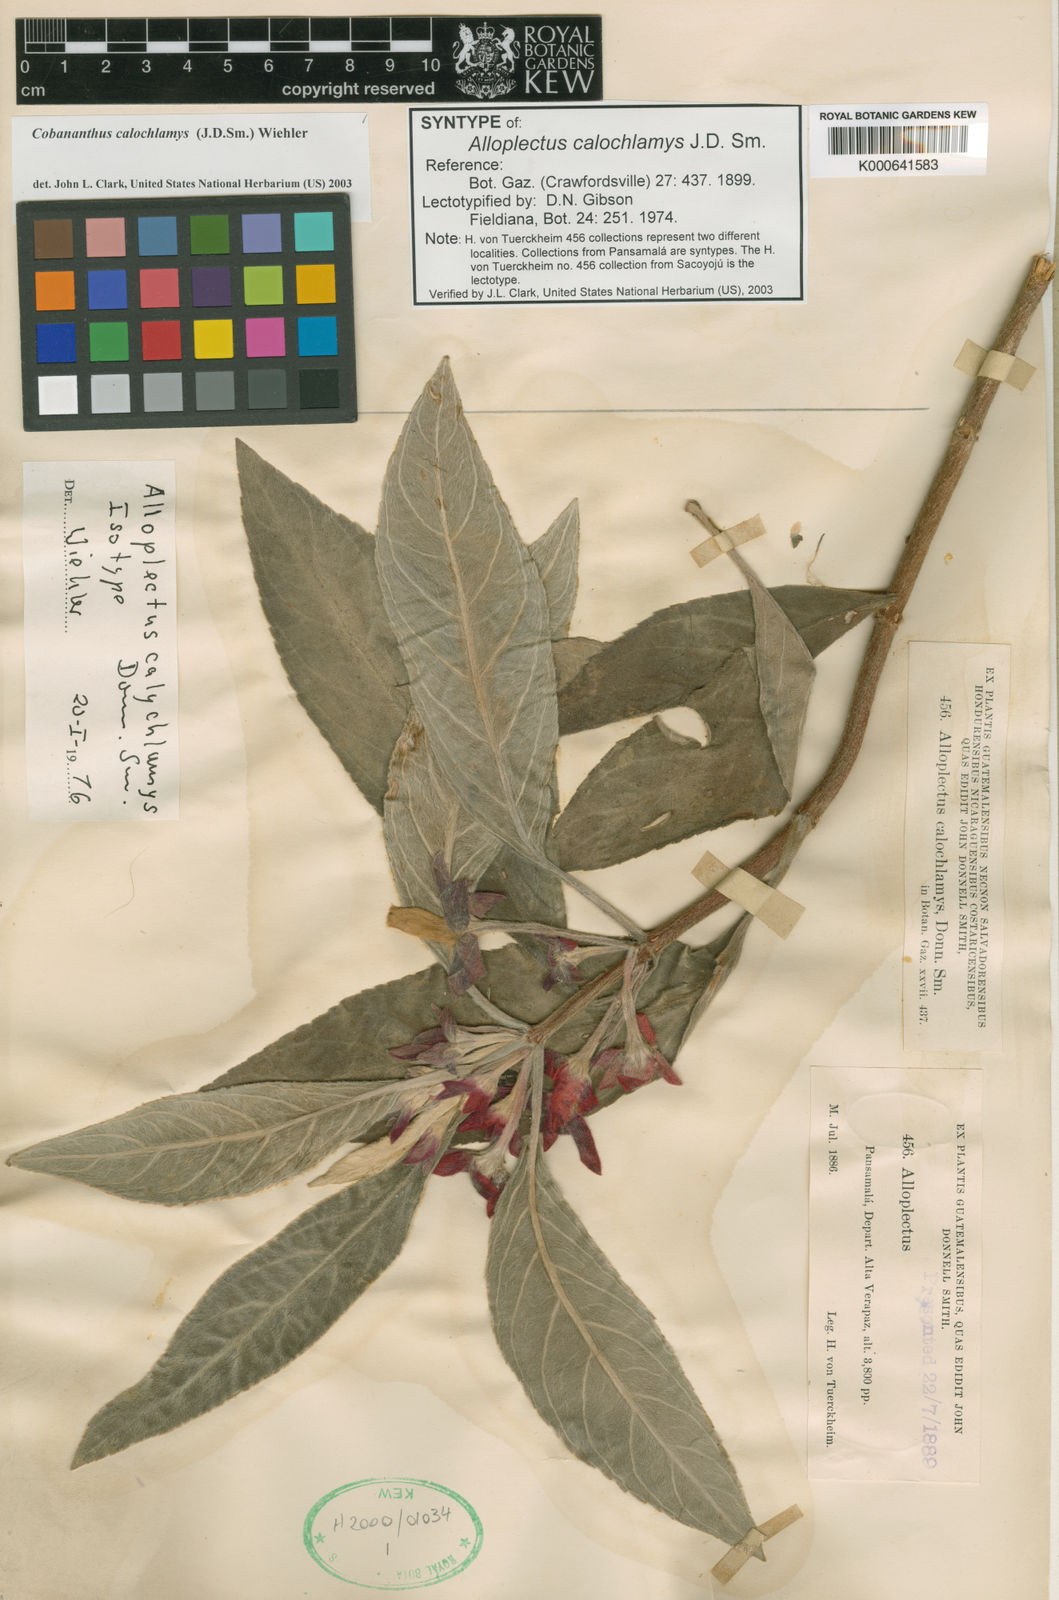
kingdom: Plantae
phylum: Tracheophyta
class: Magnoliopsida
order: Lamiales
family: Gesneriaceae
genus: Cobananthus
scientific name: Cobananthus calochlamys
